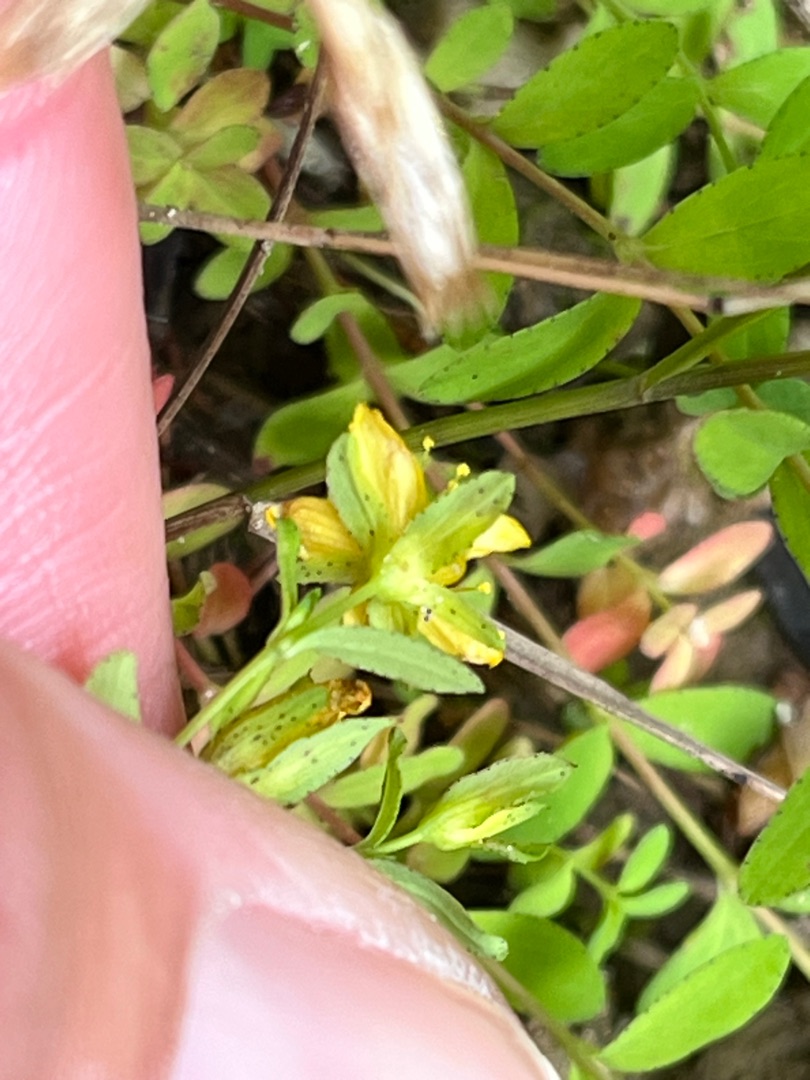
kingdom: Plantae
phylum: Tracheophyta
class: Magnoliopsida
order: Malpighiales
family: Hypericaceae
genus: Hypericum
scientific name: Hypericum humifusum
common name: Dværg-perikon
